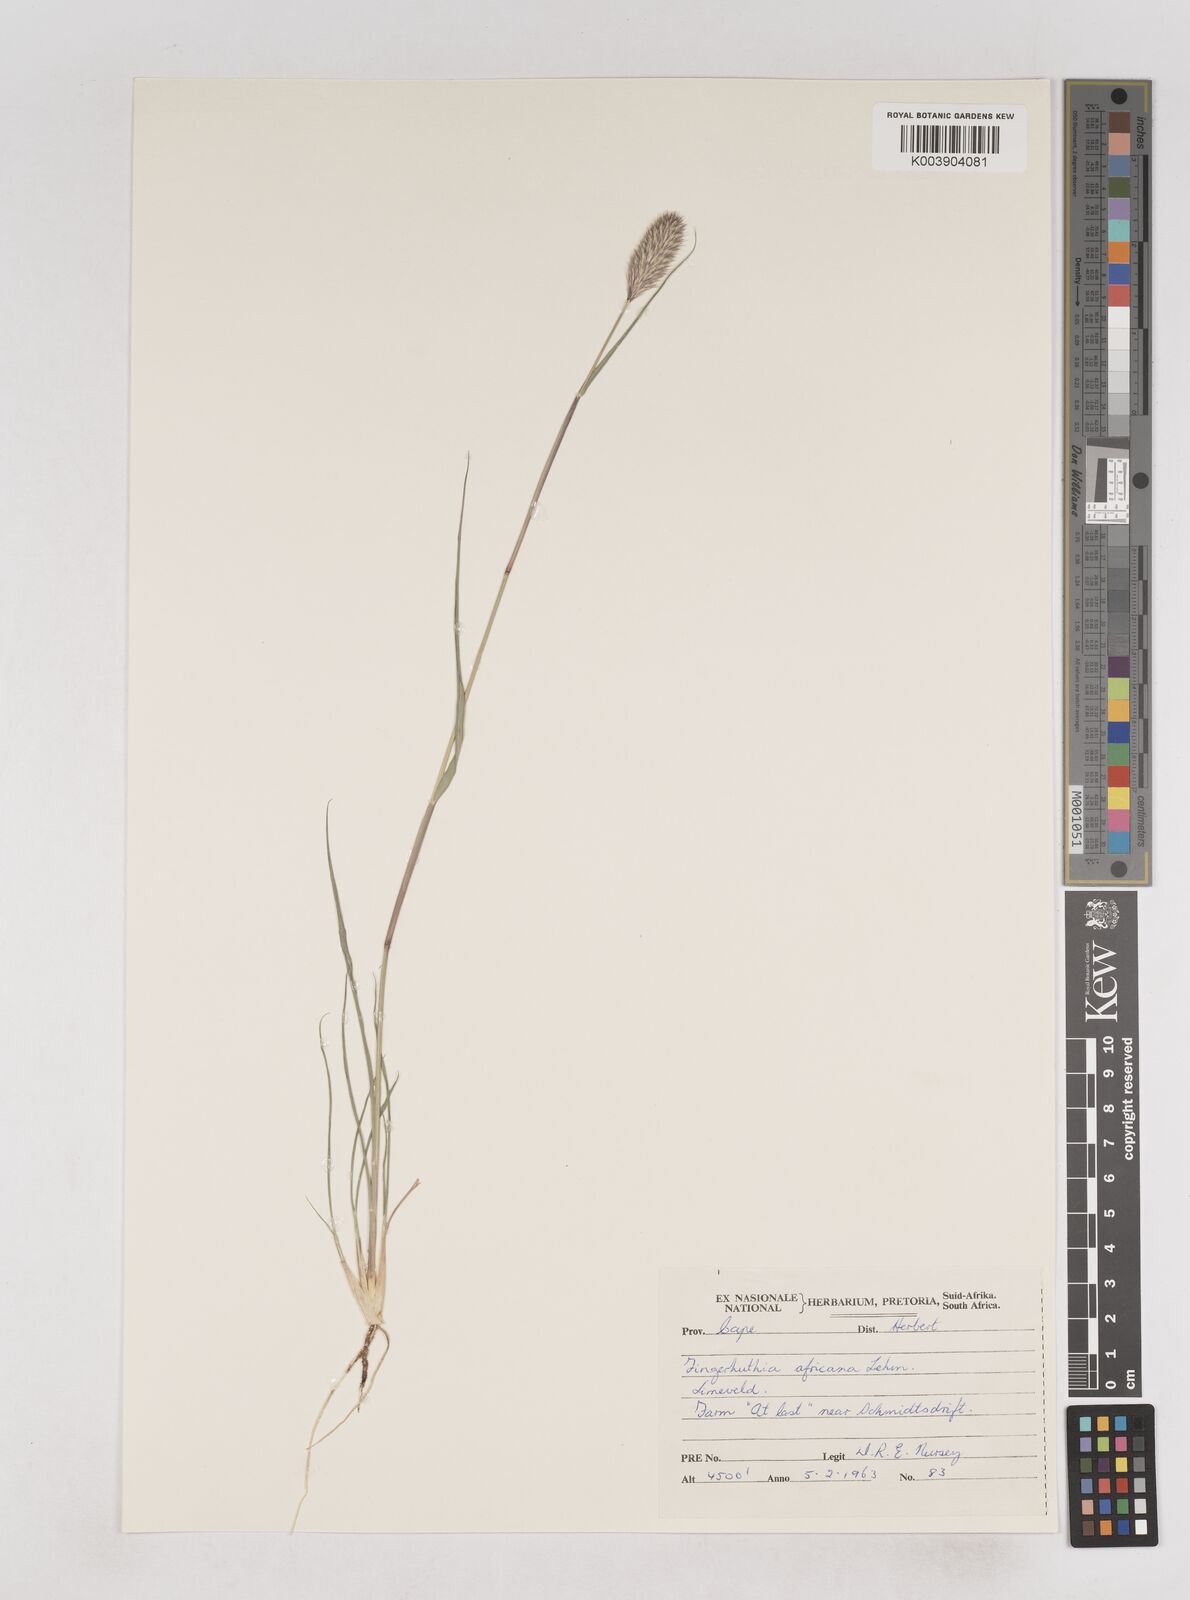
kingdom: Plantae
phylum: Tracheophyta
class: Liliopsida
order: Poales
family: Poaceae
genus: Fingerhuthia
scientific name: Fingerhuthia africana
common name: Zulu fescue
